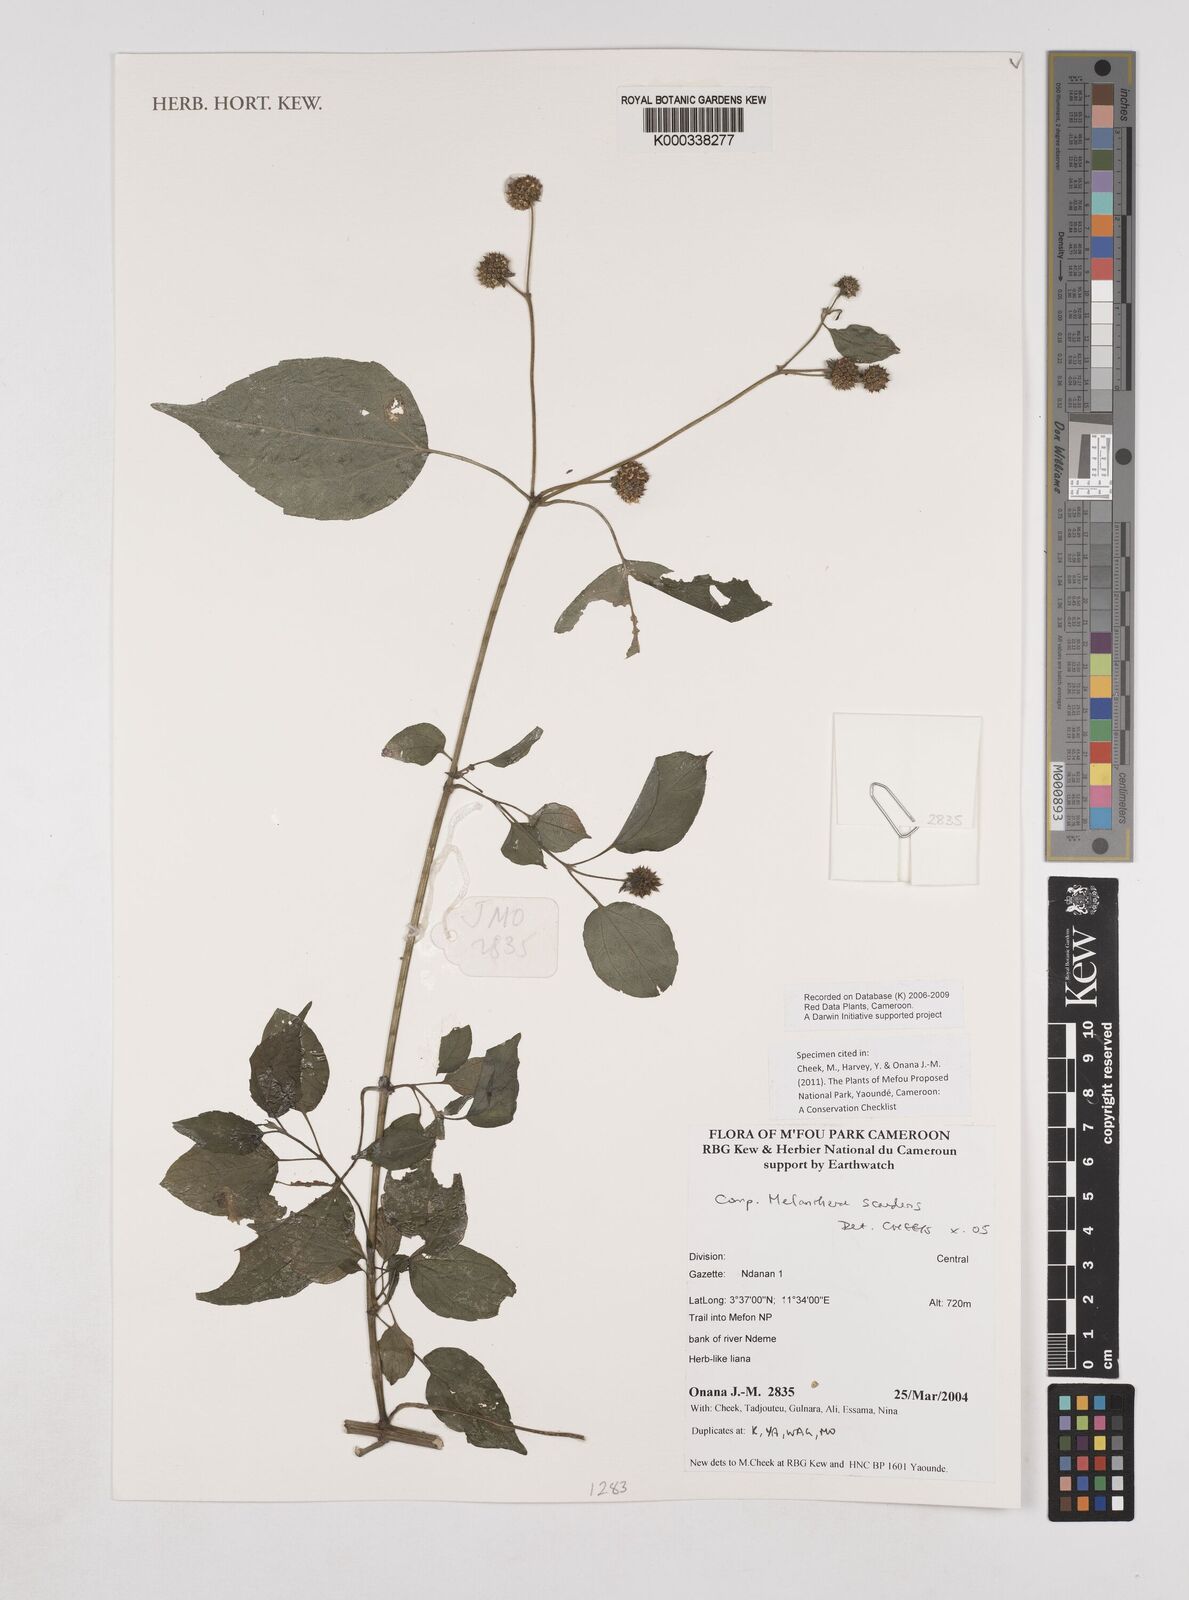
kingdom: Plantae
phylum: Tracheophyta
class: Magnoliopsida
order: Asterales
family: Asteraceae
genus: Melanthera
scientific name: Melanthera
